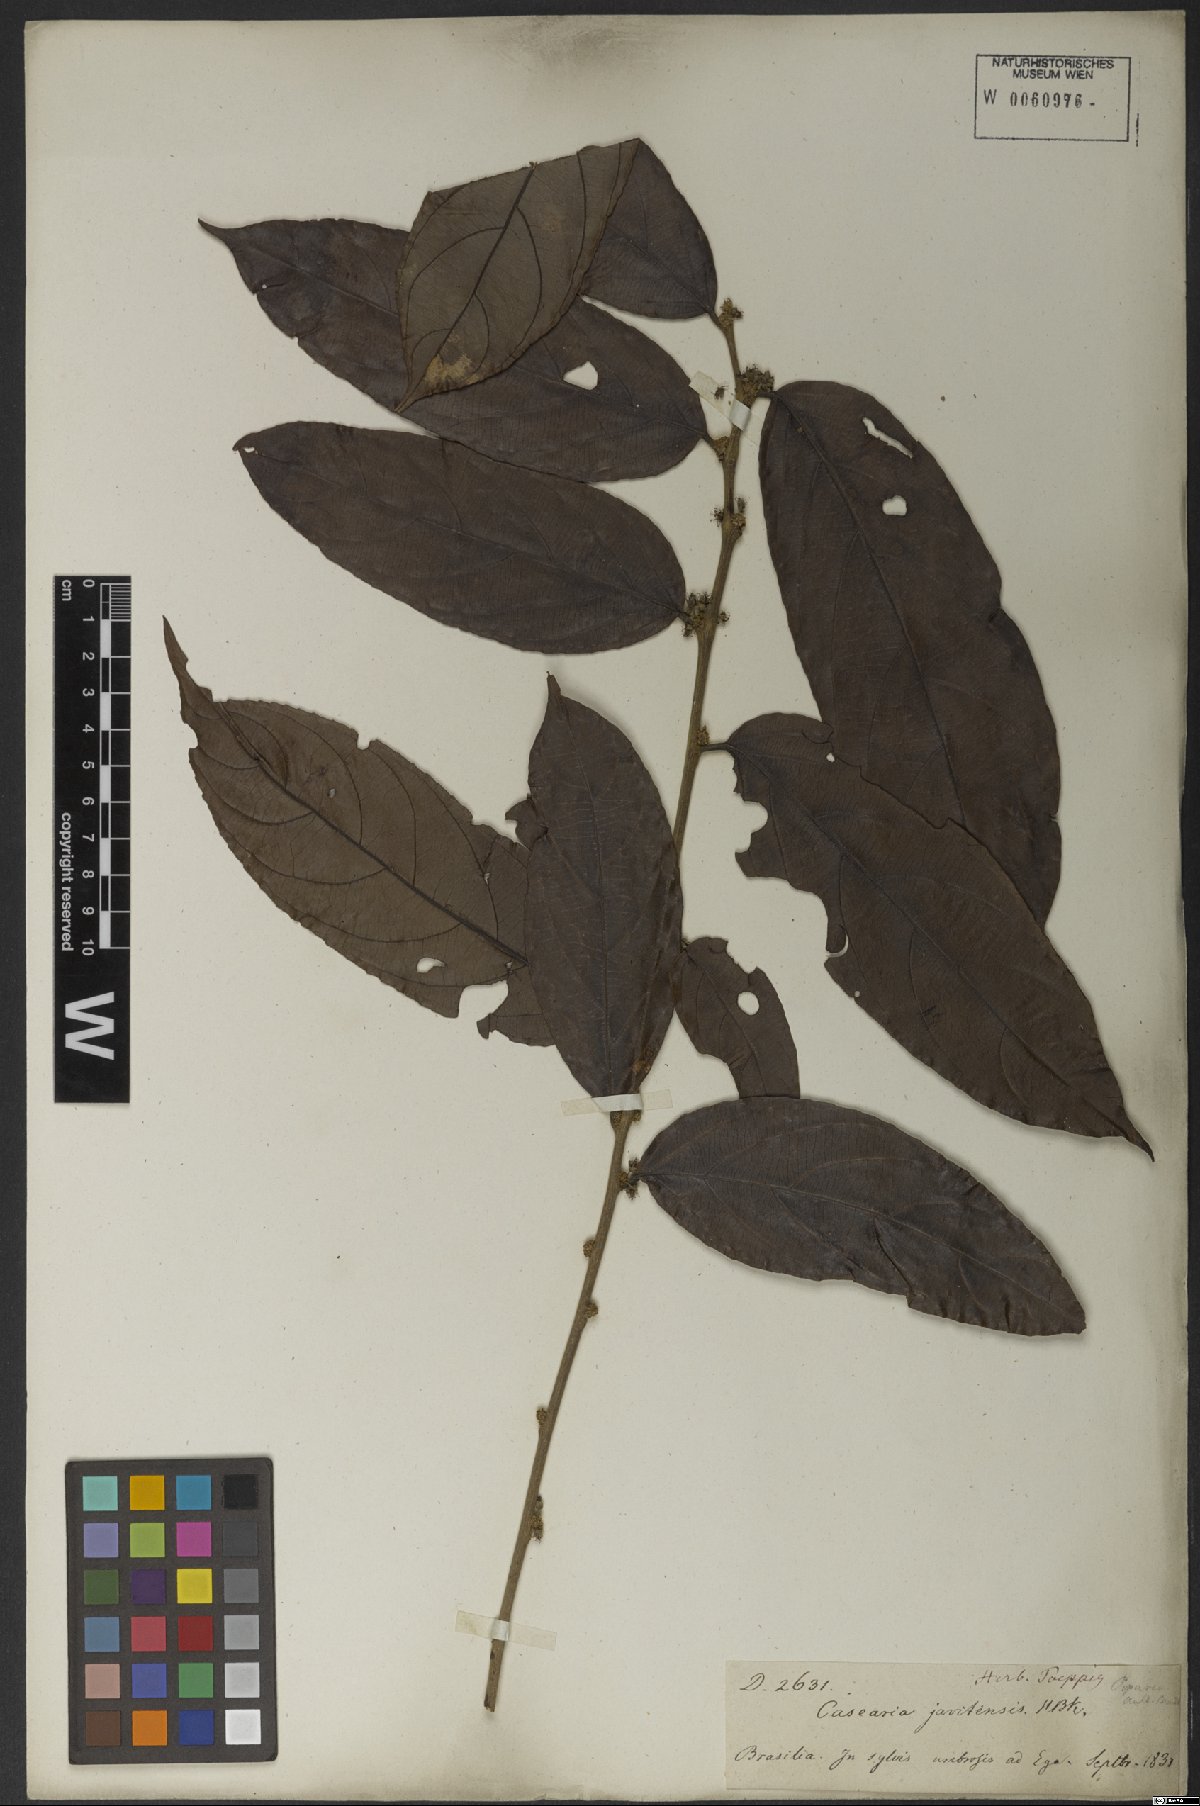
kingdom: Plantae
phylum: Tracheophyta
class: Magnoliopsida
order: Malpighiales
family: Salicaceae
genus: Piparea
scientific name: Piparea multiflora
